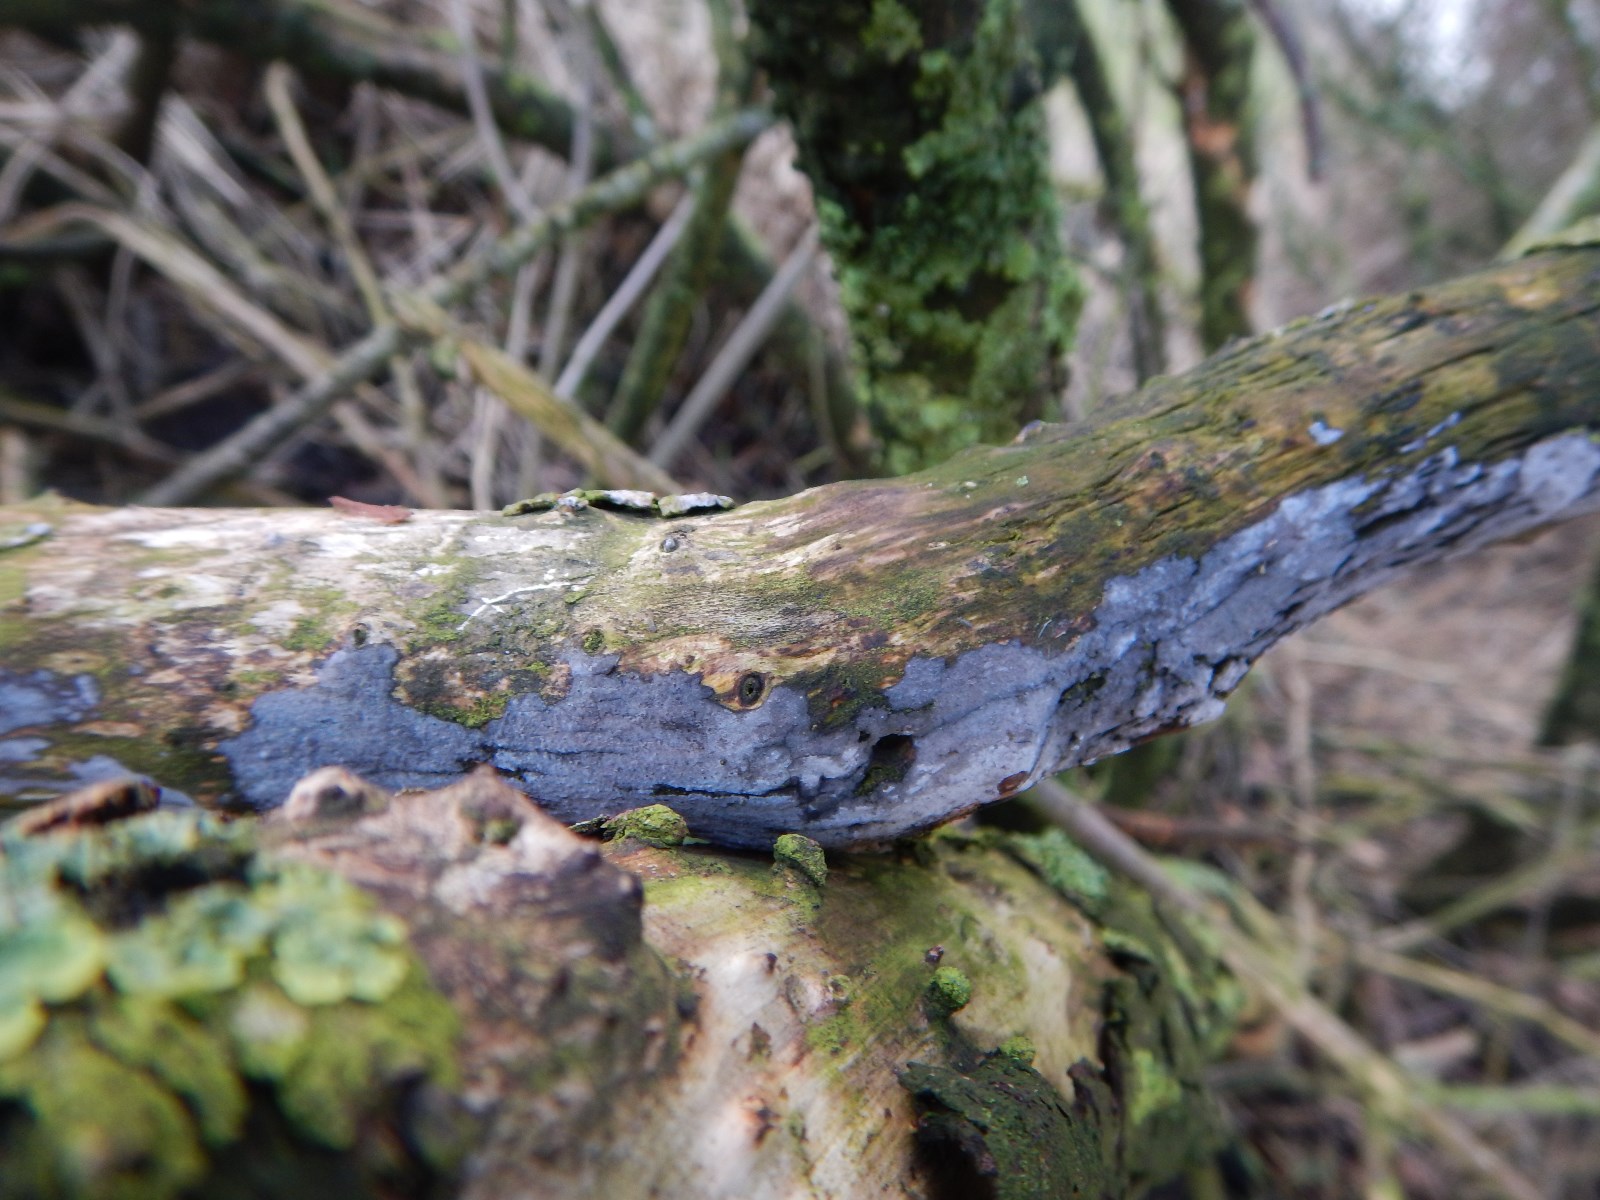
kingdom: Fungi
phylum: Basidiomycota
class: Agaricomycetes
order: Russulales
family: Peniophoraceae
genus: Peniophora
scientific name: Peniophora
